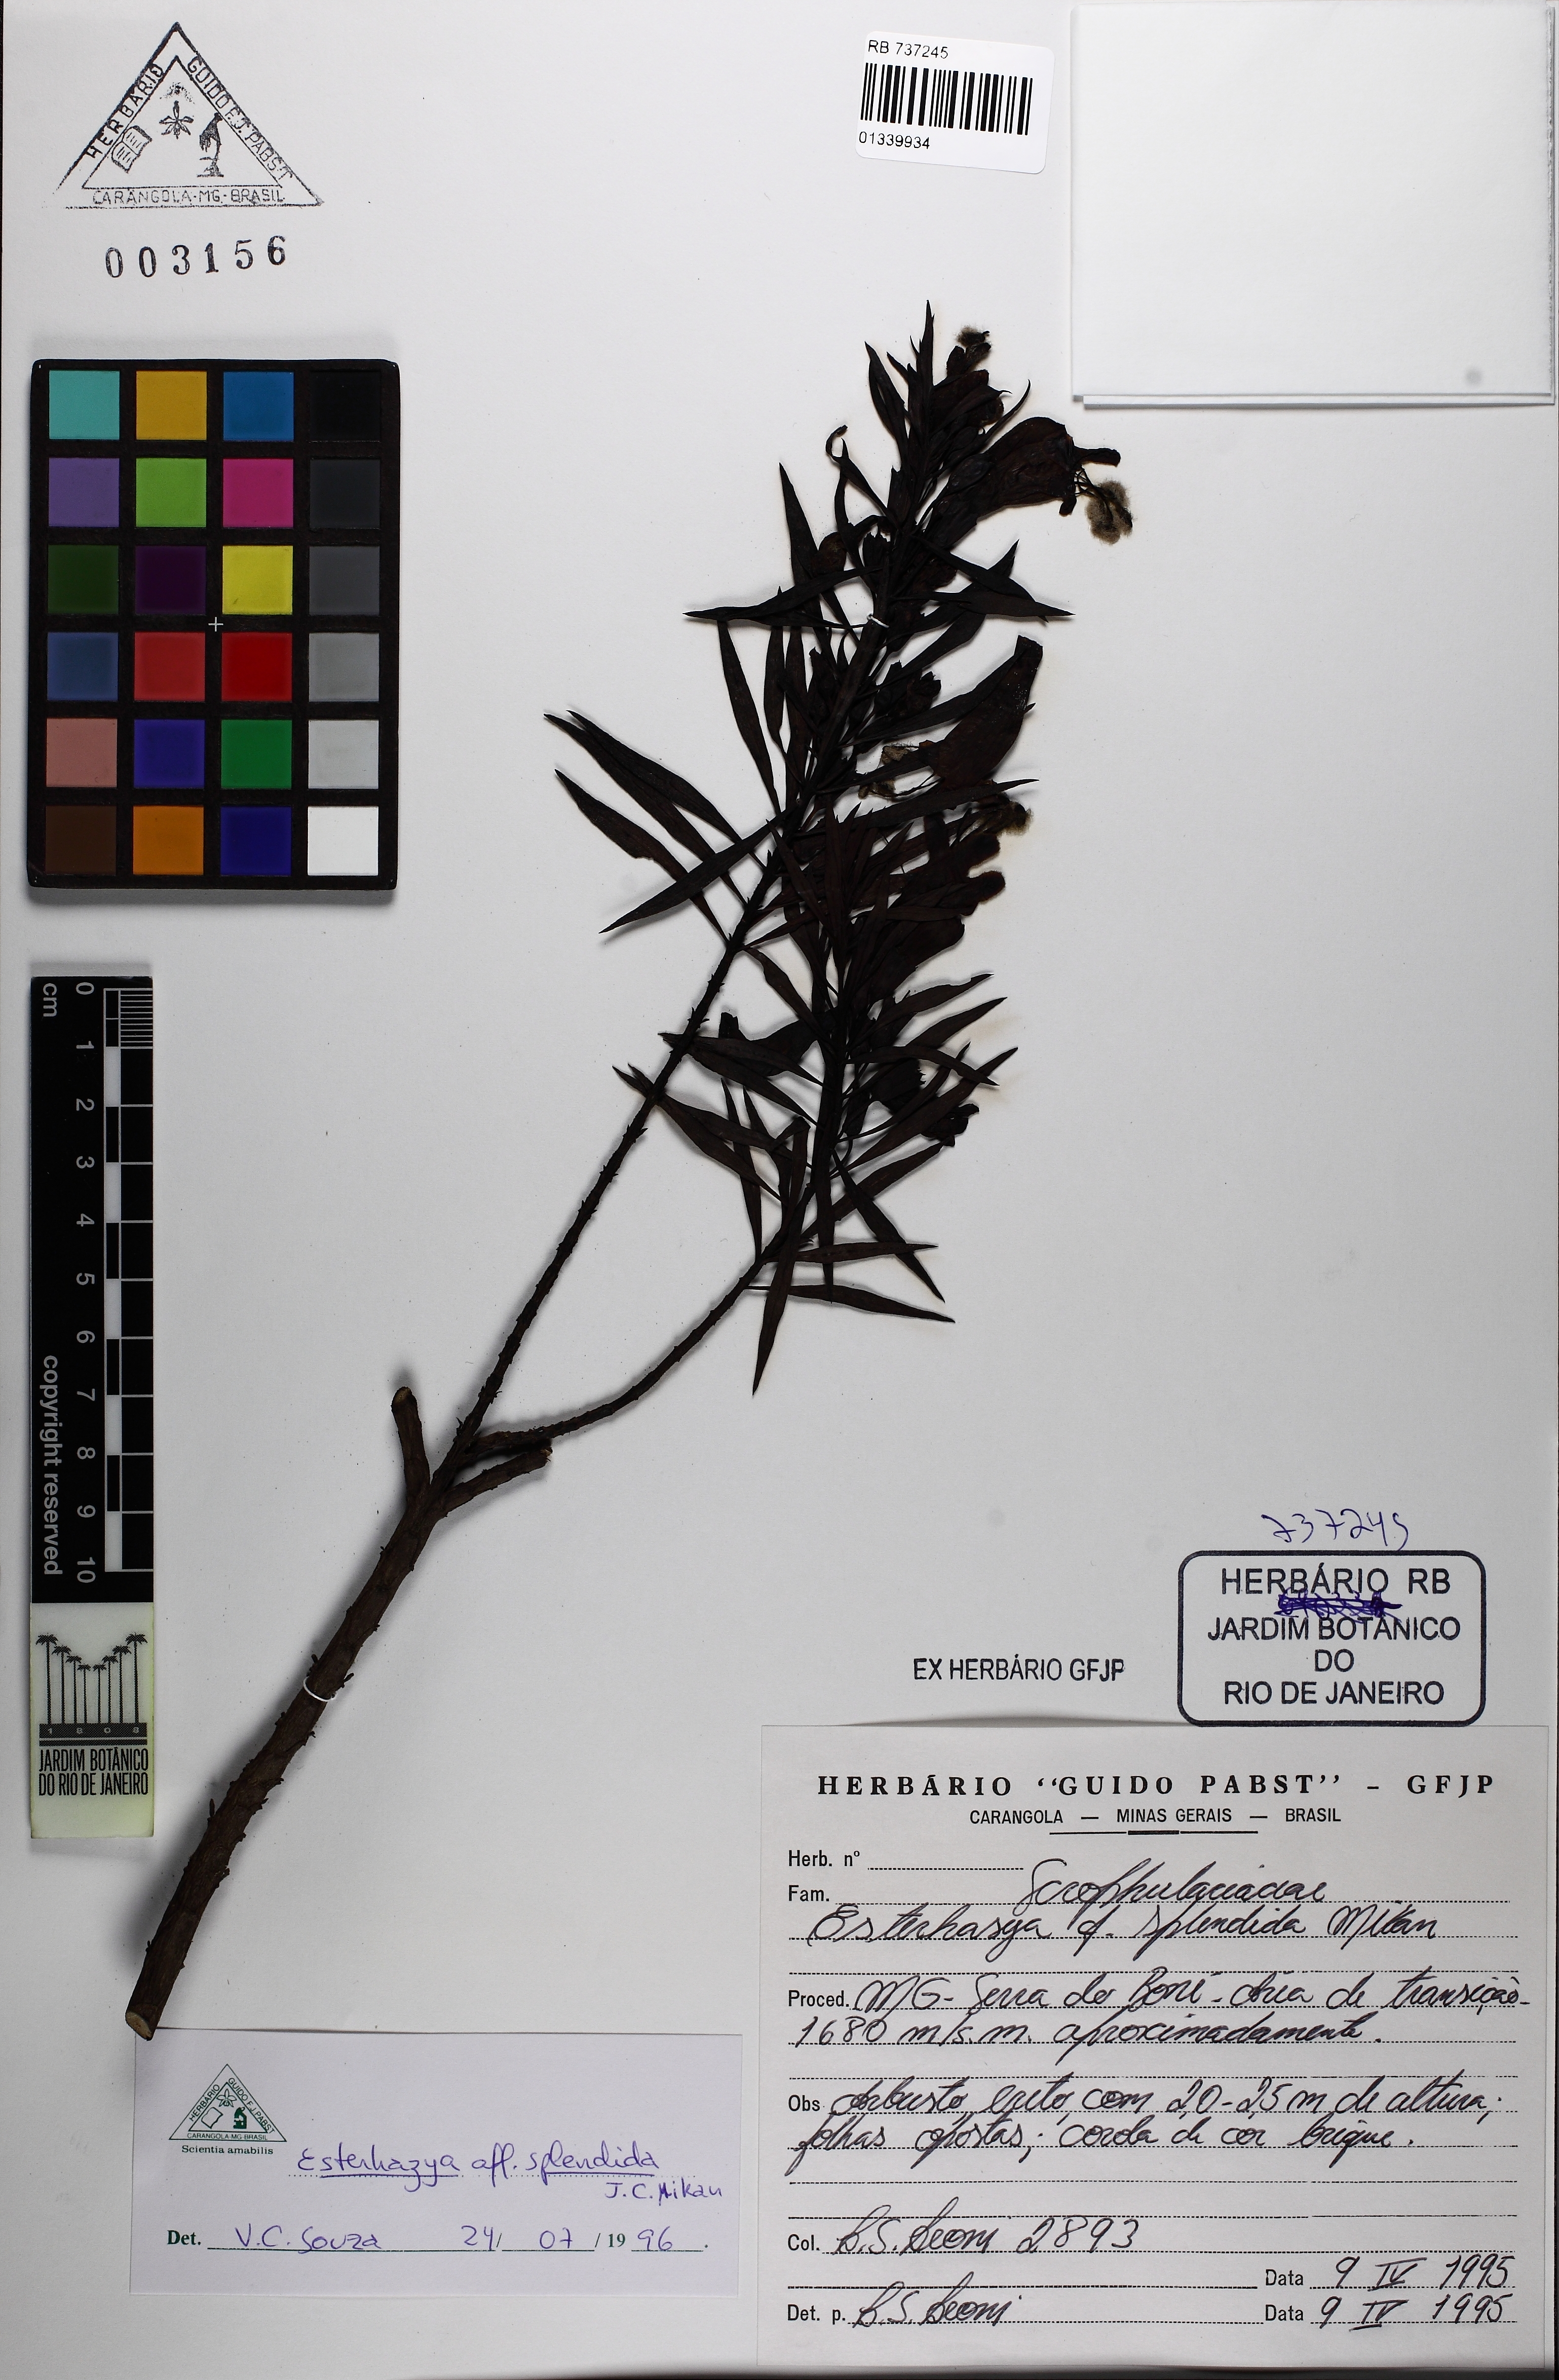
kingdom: Plantae
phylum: Tracheophyta
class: Magnoliopsida
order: Lamiales
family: Orobanchaceae
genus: Esterhazya
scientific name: Esterhazya splendida
